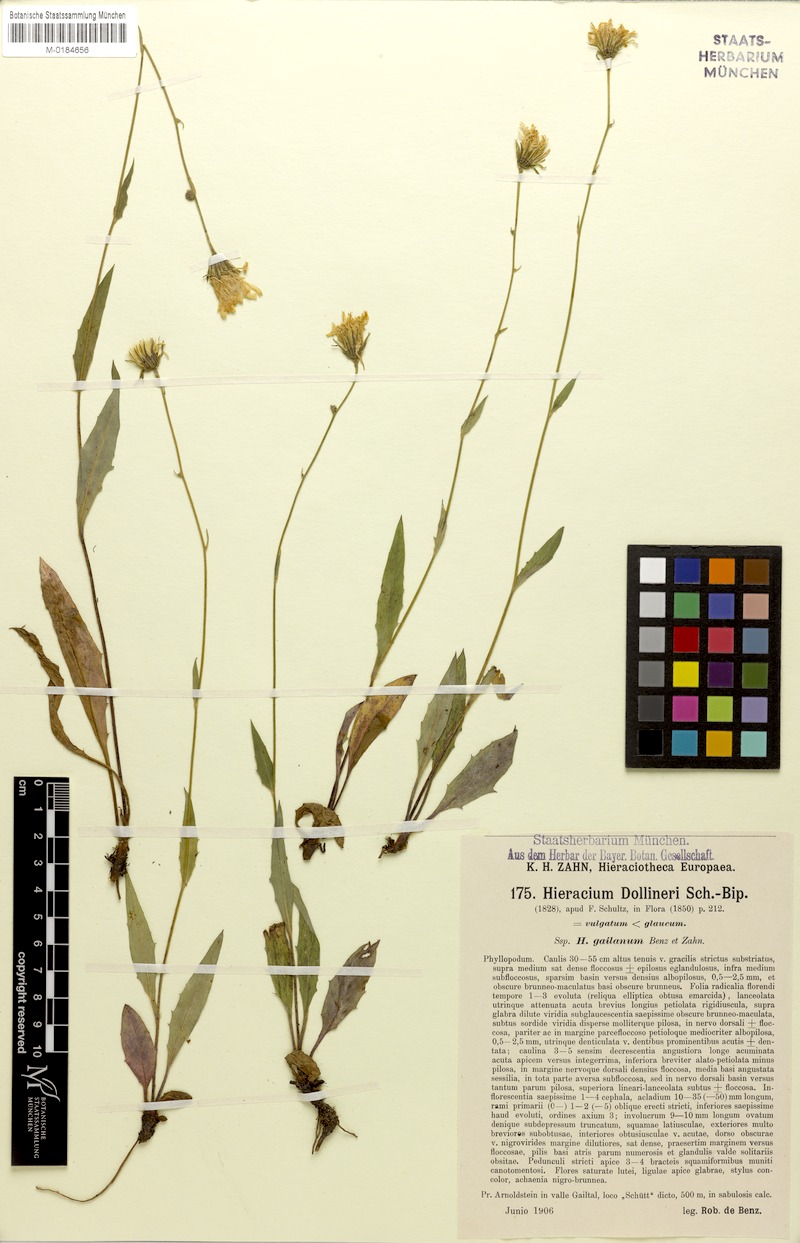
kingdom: Plantae
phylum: Tracheophyta
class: Magnoliopsida
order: Asterales
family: Asteraceae
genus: Hieracium
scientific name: Hieracium dollineri
